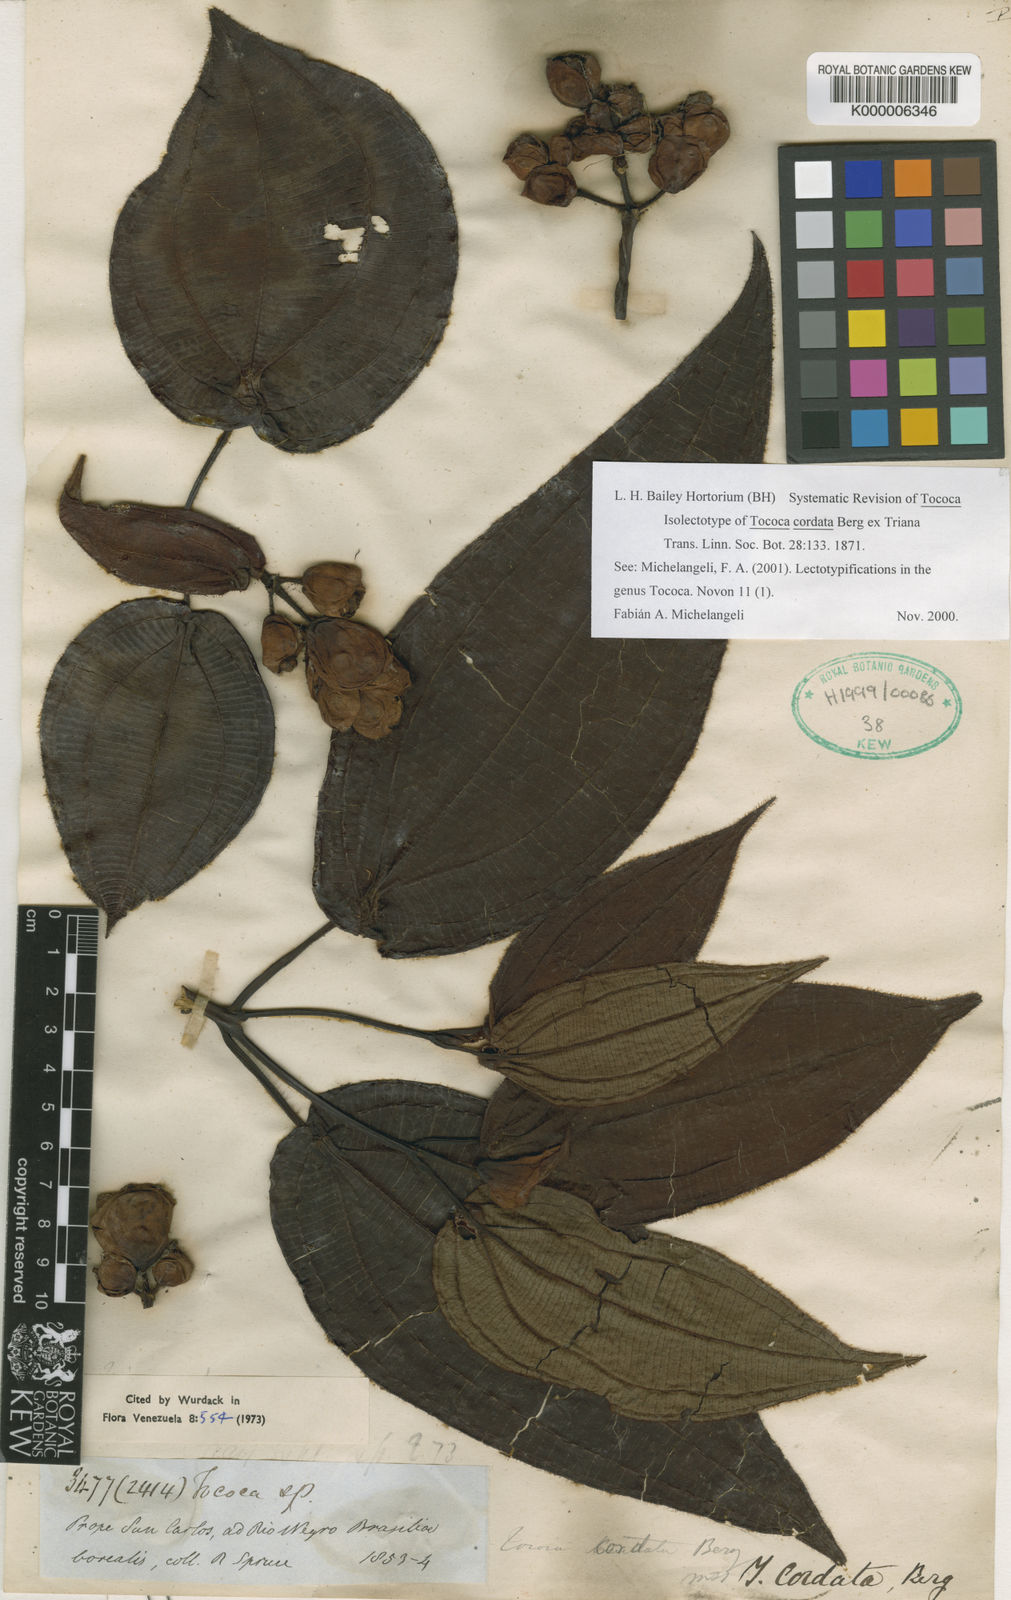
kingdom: Plantae
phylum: Tracheophyta
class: Magnoliopsida
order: Myrtales
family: Melastomataceae
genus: Miconia
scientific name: Miconia tococordata
